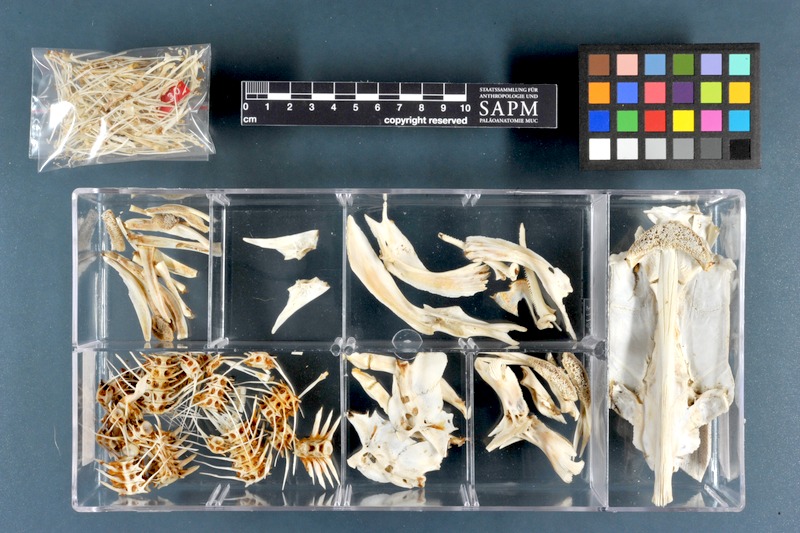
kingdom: Animalia
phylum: Chordata
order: Siluriformes
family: Clariidae
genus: Clarias
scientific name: Clarias gariepinus
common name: African catfish
